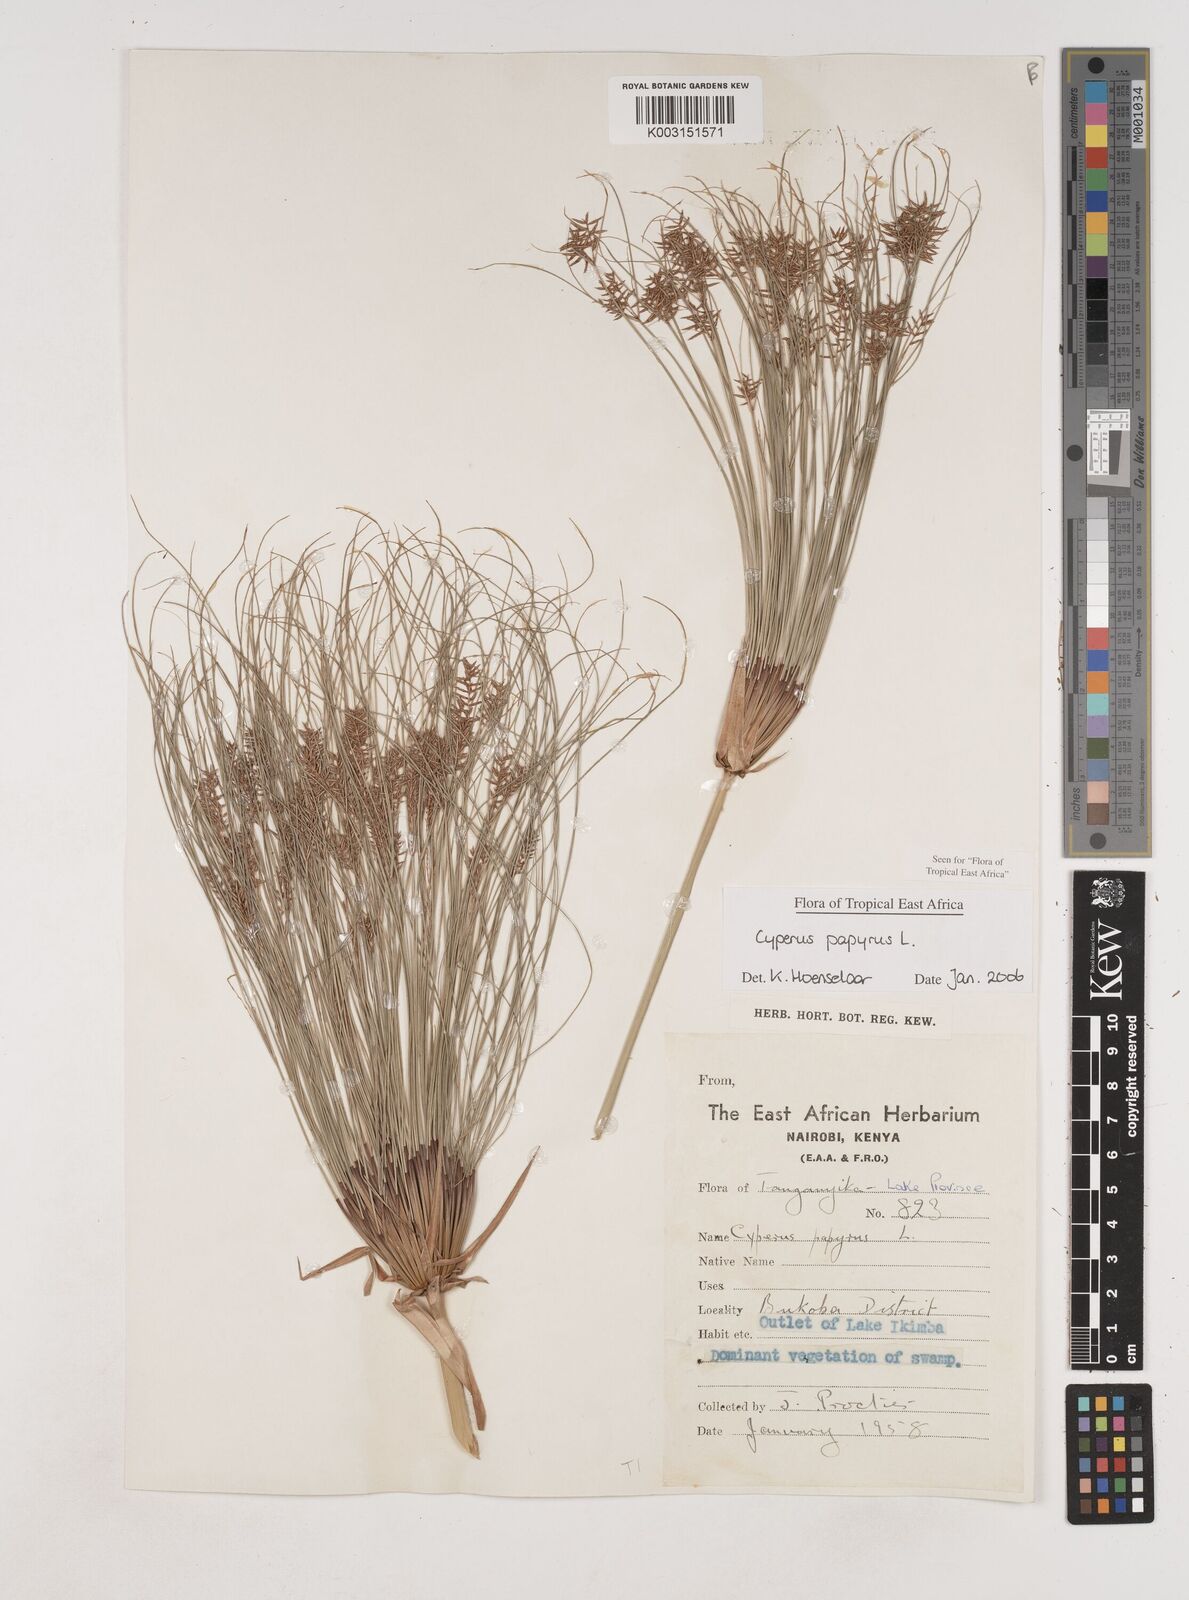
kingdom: Plantae
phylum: Tracheophyta
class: Liliopsida
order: Poales
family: Cyperaceae
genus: Cyperus
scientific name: Cyperus papyrus
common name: Papyrus
